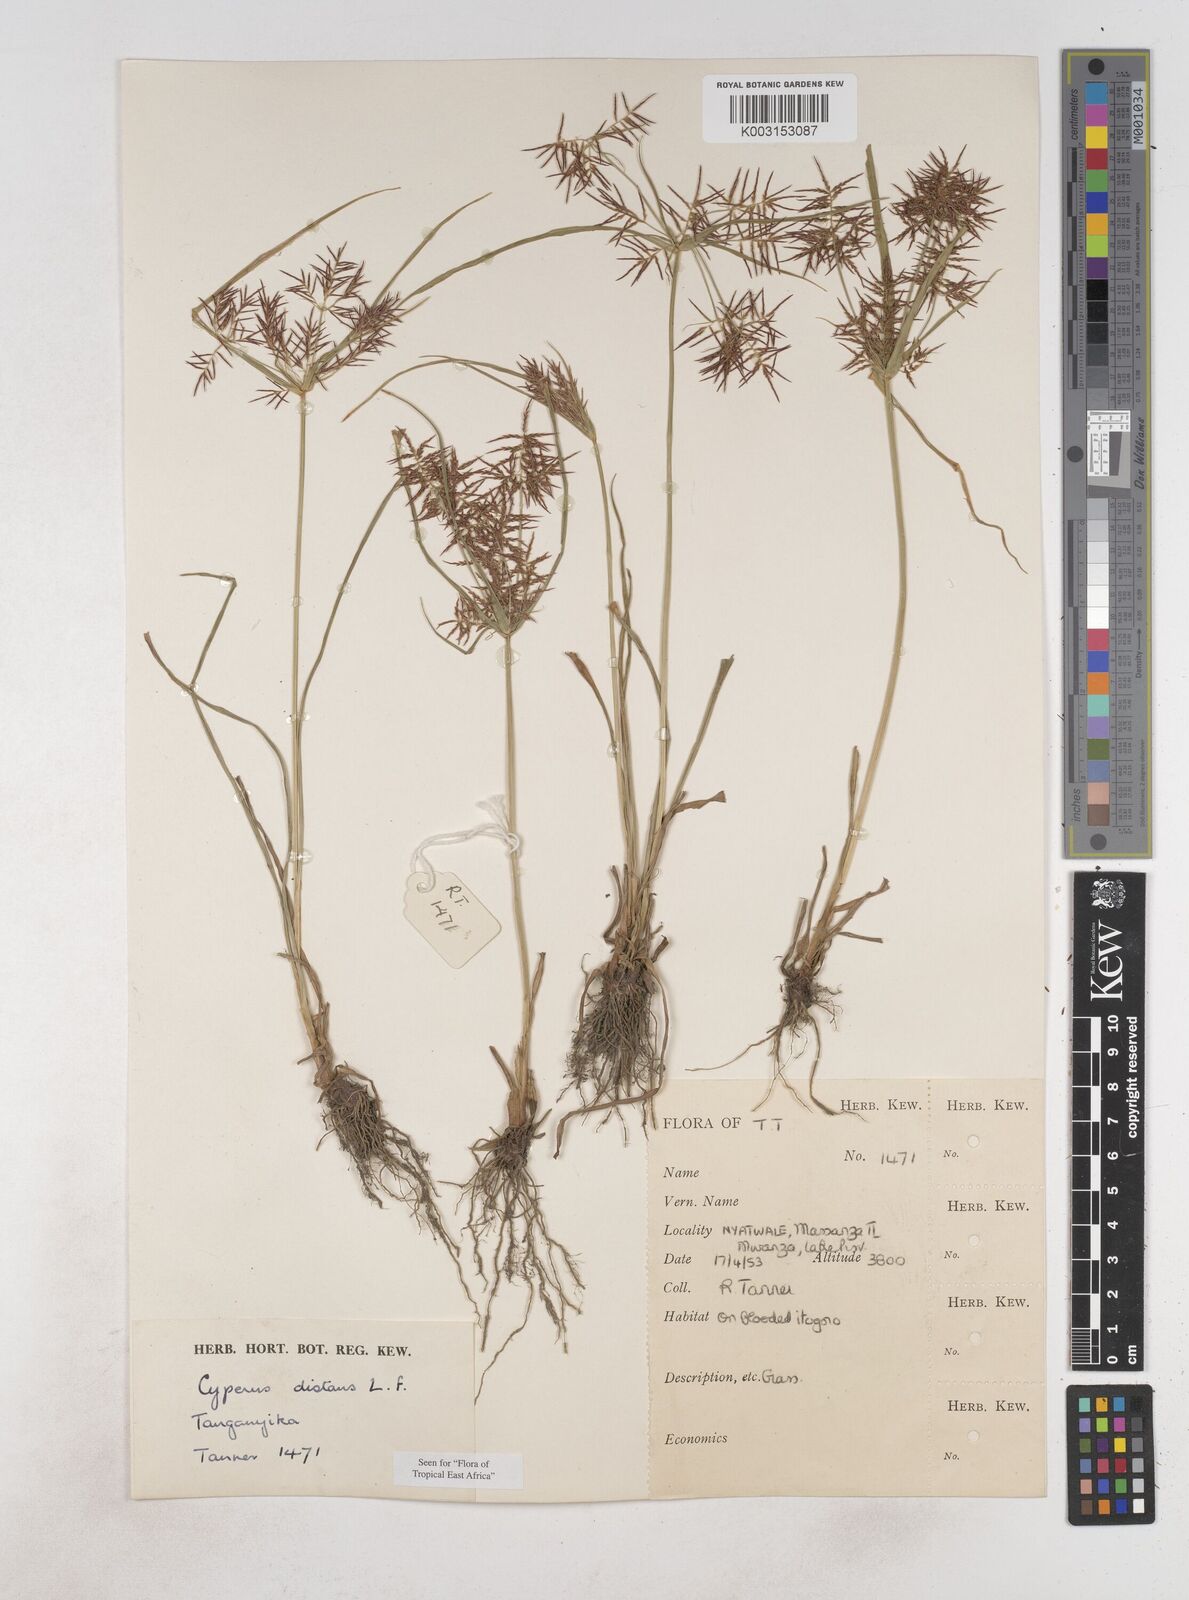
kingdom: Plantae
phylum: Tracheophyta
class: Liliopsida
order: Poales
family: Cyperaceae
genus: Cyperus
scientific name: Cyperus distans
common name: Slender cyperus
